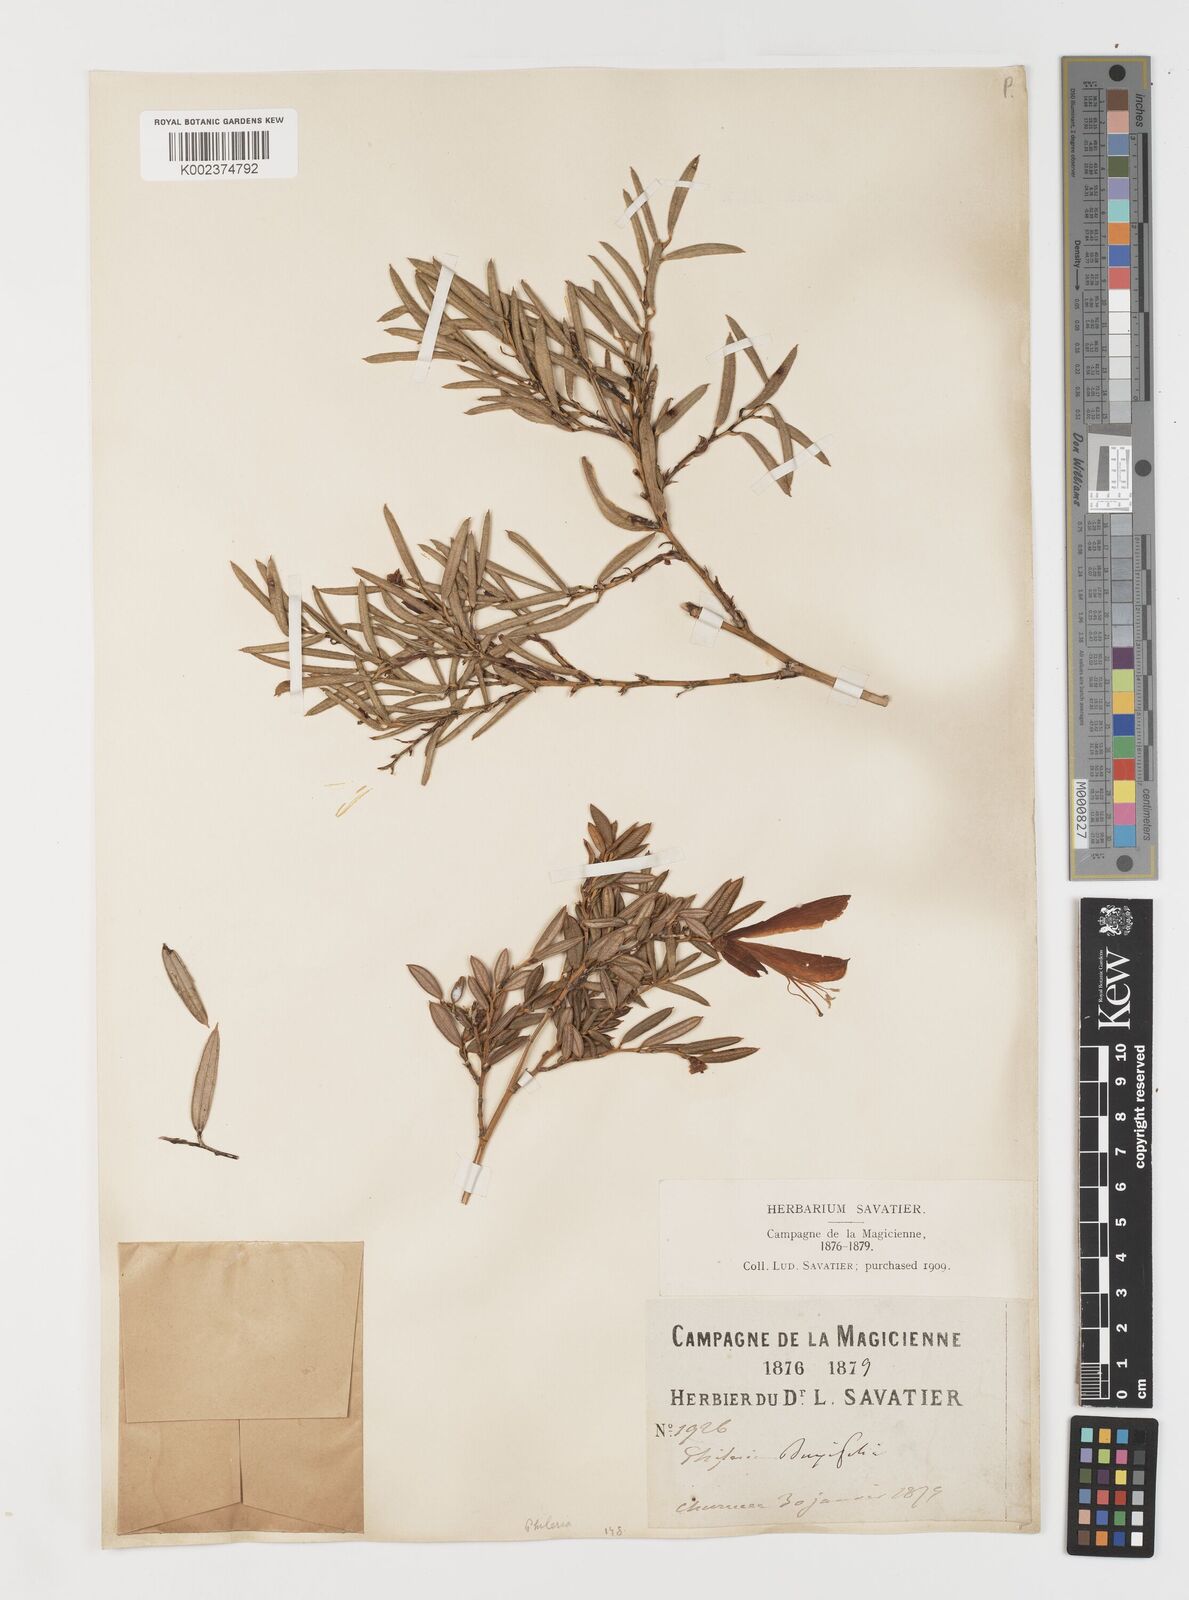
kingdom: Plantae
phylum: Tracheophyta
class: Liliopsida
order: Liliales
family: Philesiaceae
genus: Philesia
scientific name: Philesia magellanica
